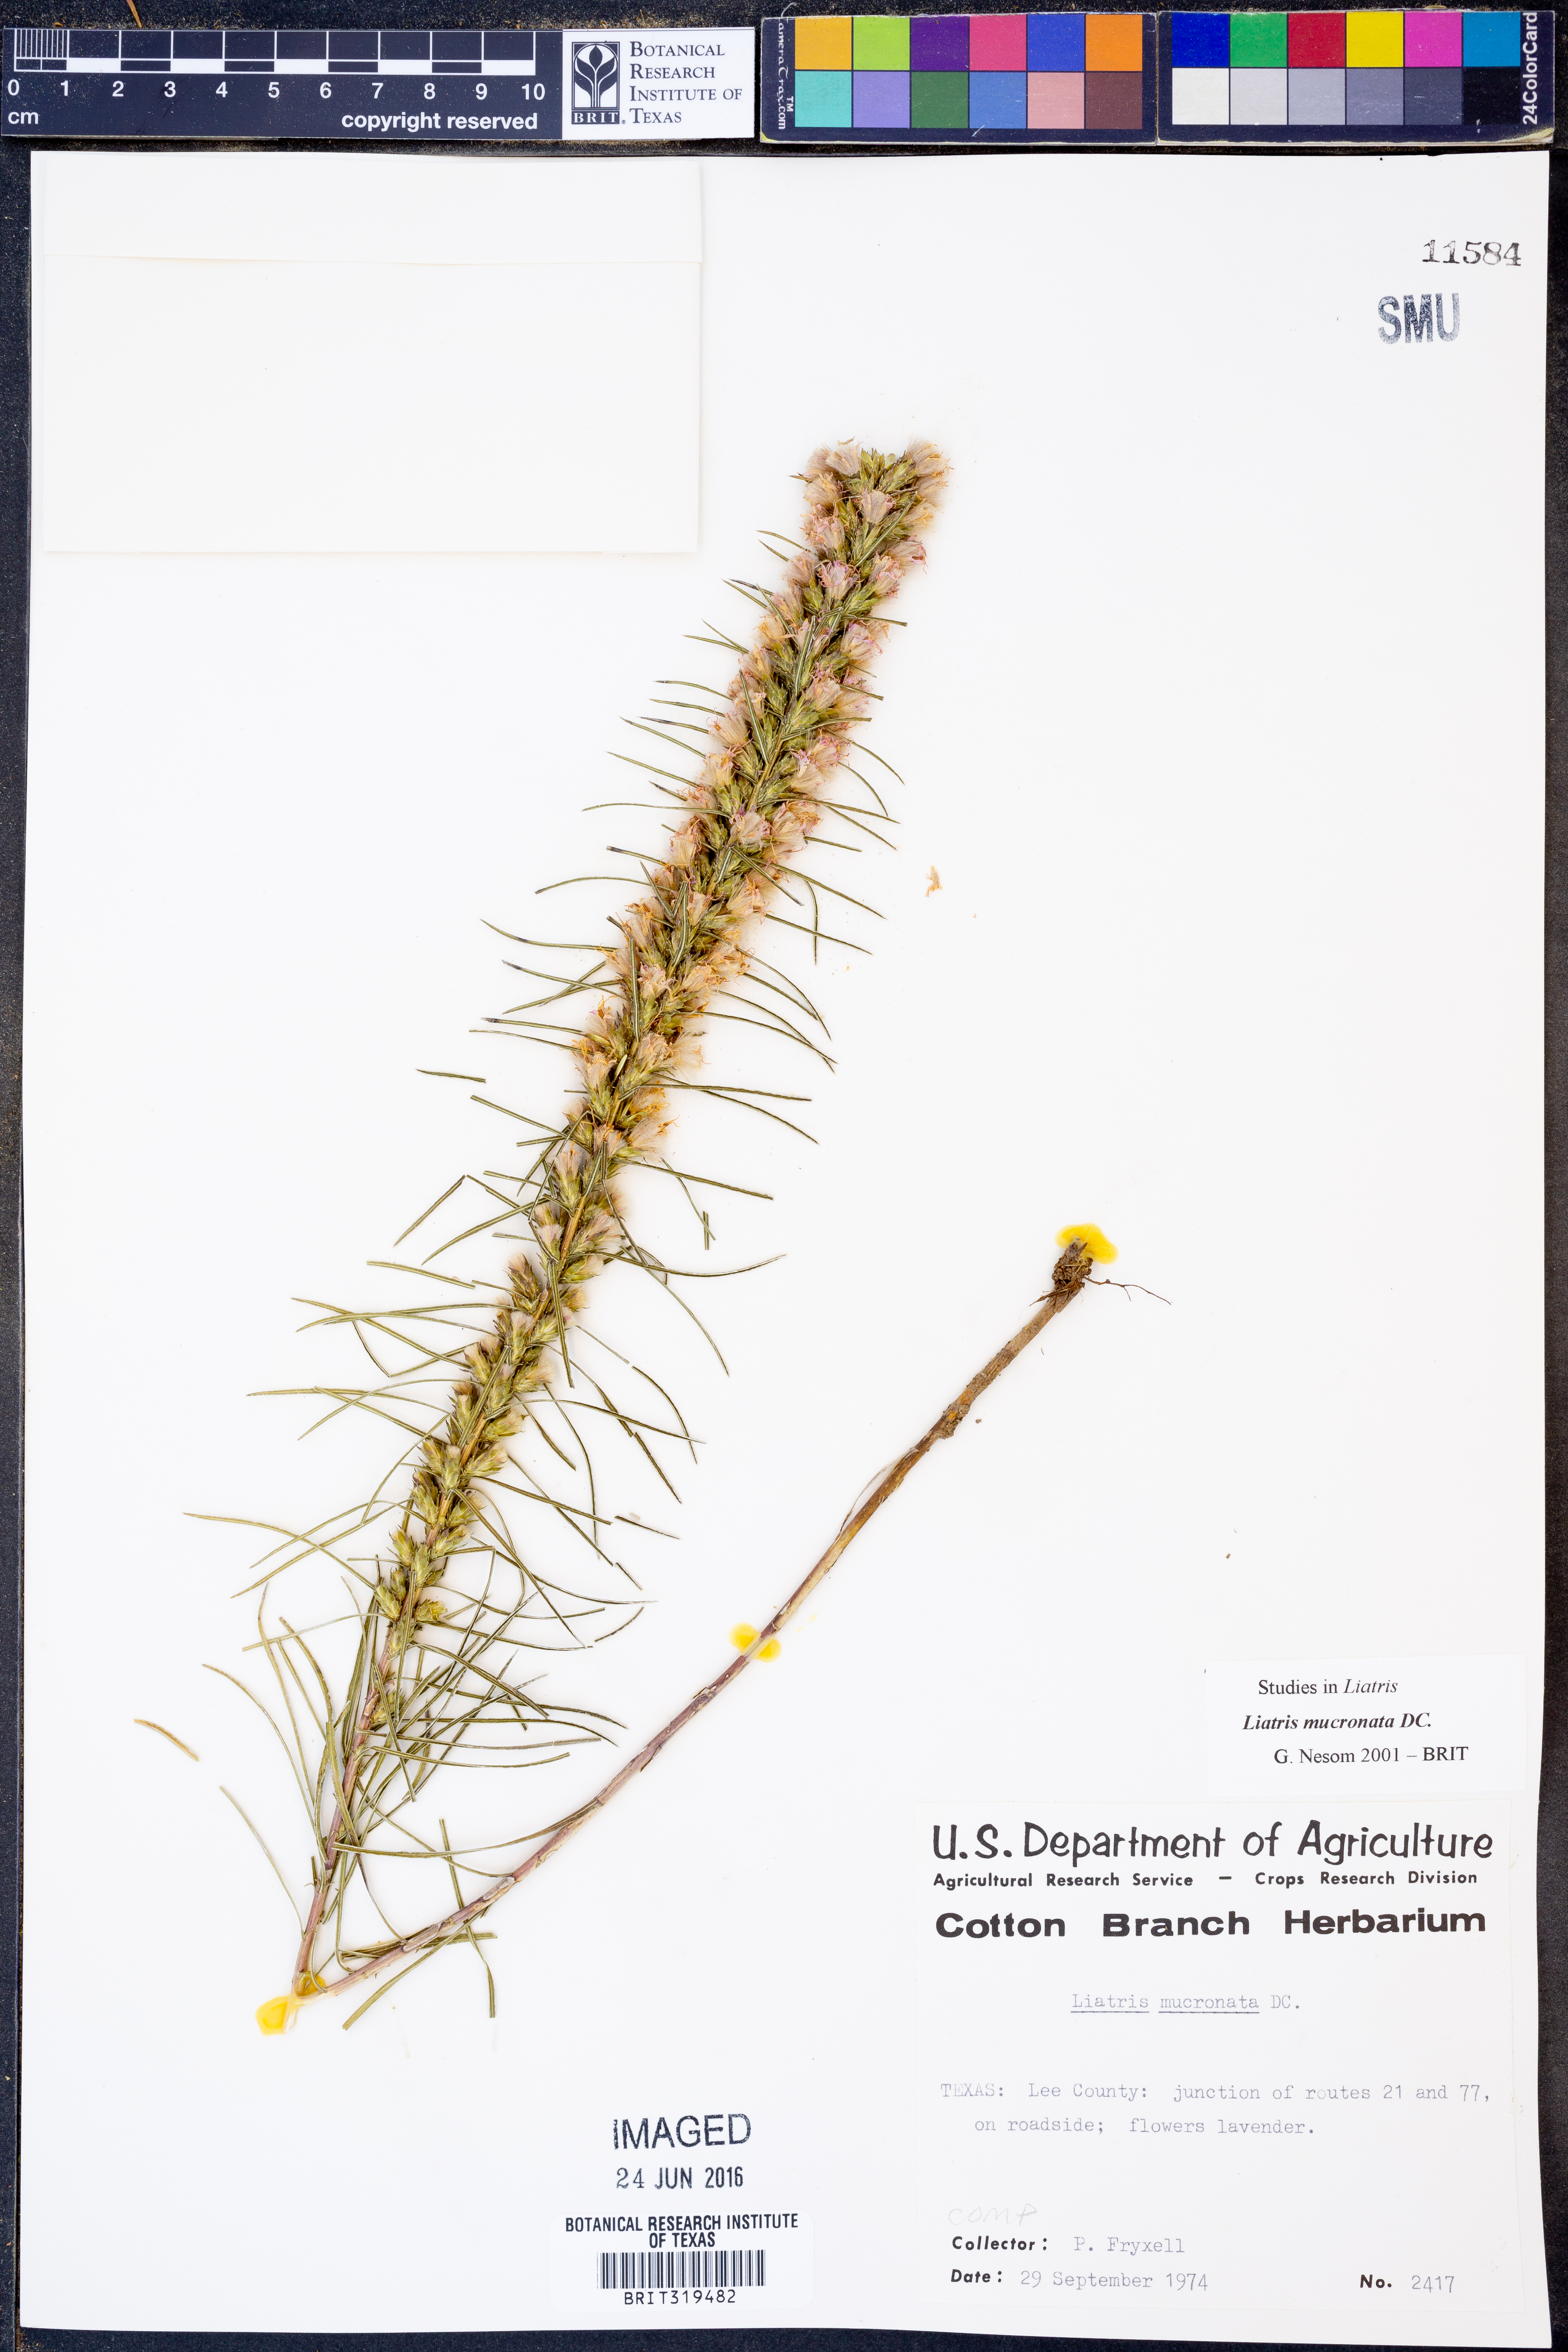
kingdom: Plantae
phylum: Tracheophyta
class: Magnoliopsida
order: Asterales
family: Asteraceae
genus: Liatris
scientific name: Liatris mucronata
